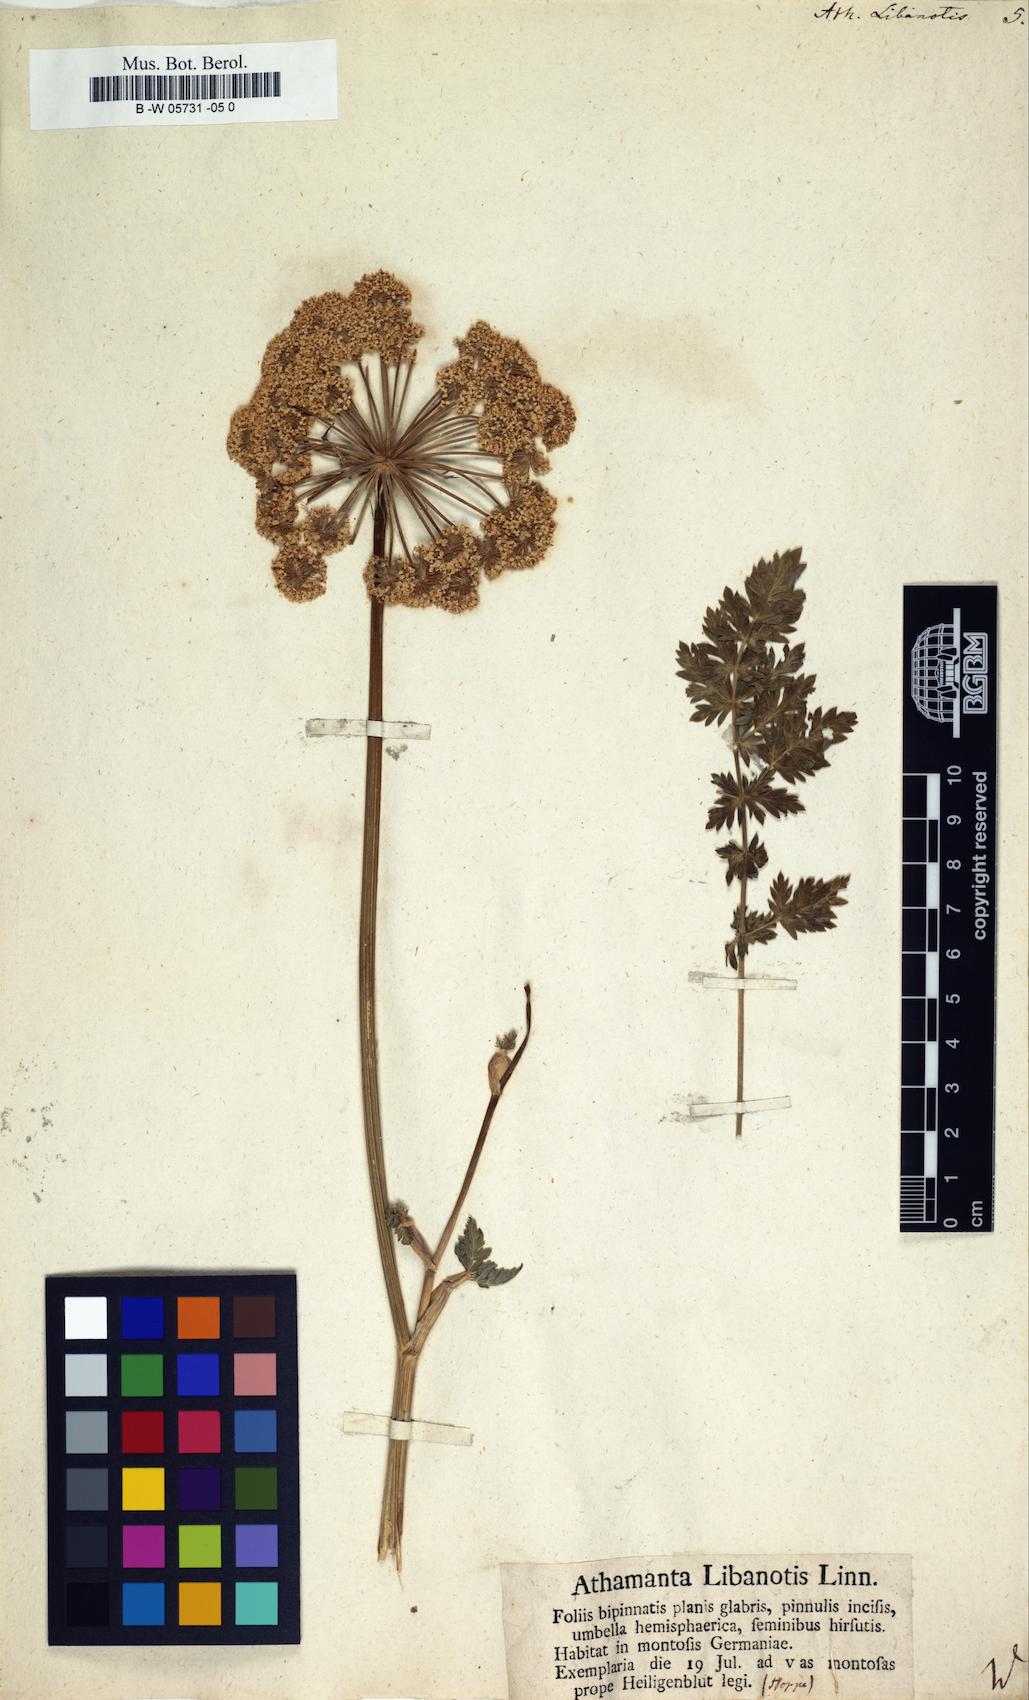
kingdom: Plantae
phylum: Tracheophyta
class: Magnoliopsida
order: Apiales
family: Apiaceae
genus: Seseli
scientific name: Seseli libanotis
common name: Mooncarrot
